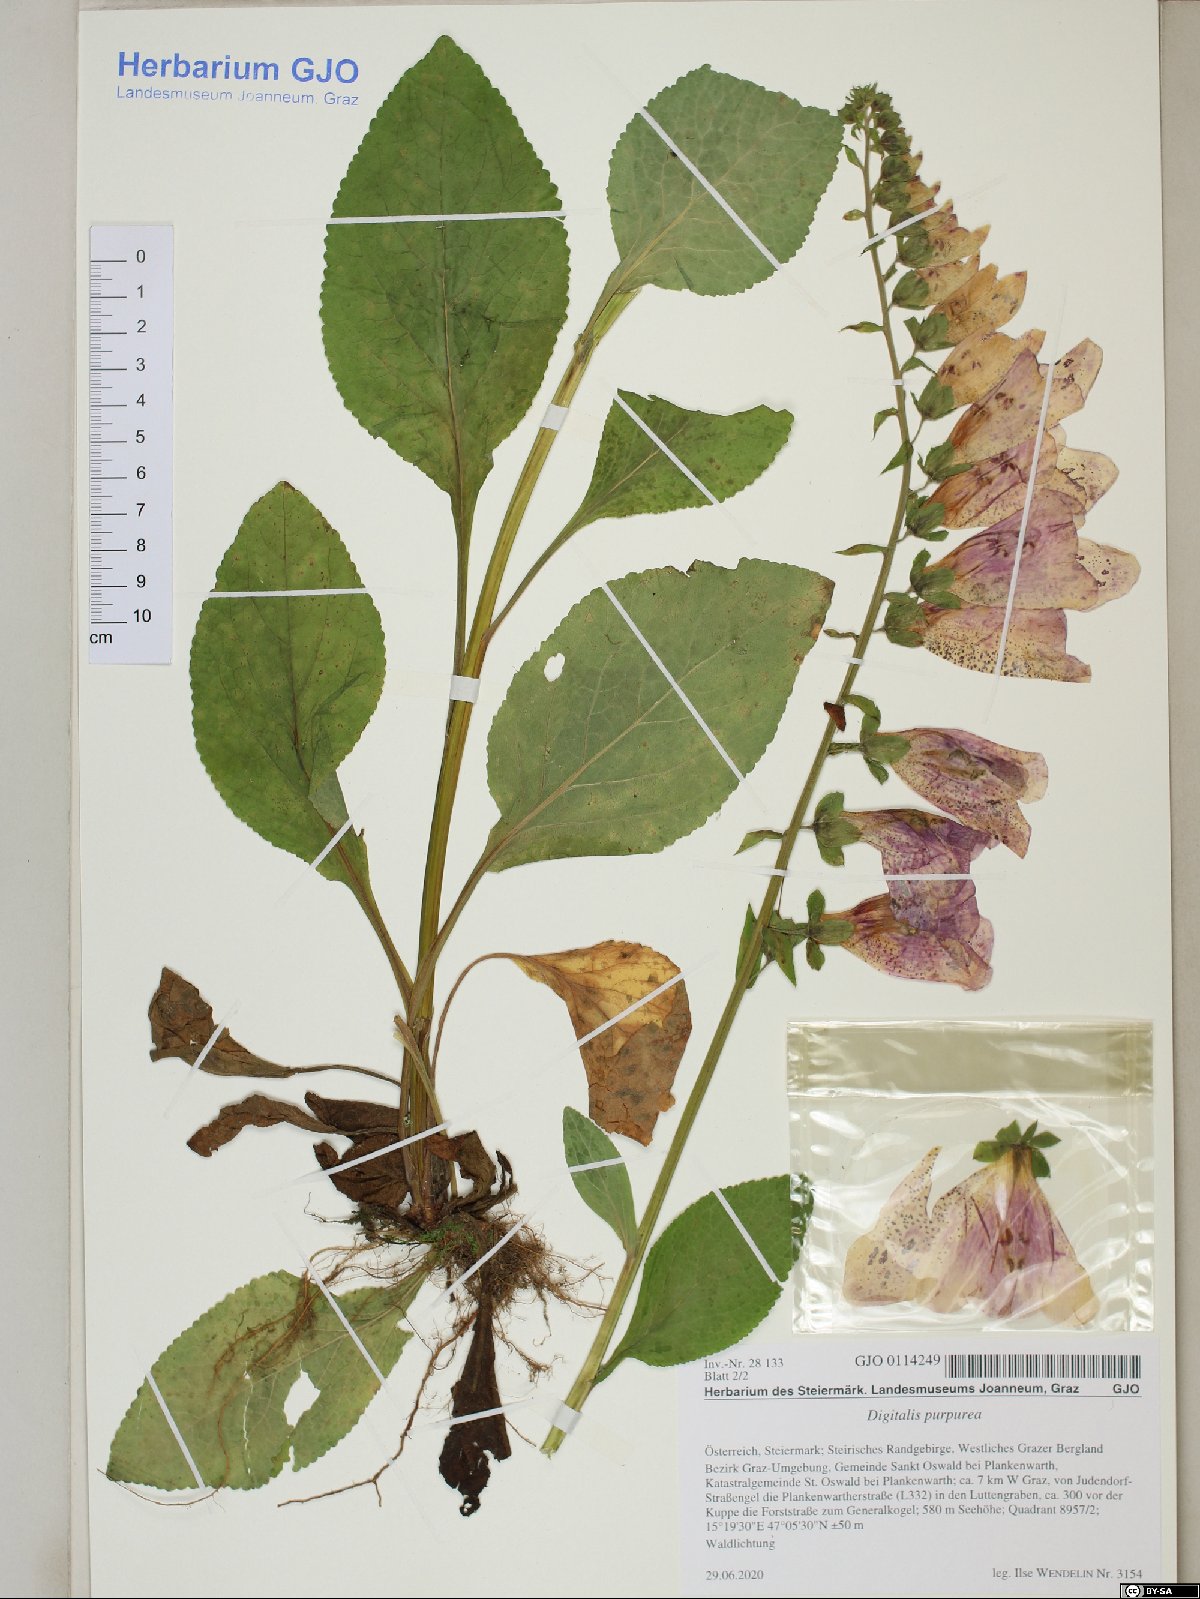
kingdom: Plantae
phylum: Tracheophyta
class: Magnoliopsida
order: Apiales
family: Araliaceae
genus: Hedera
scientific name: Hedera helix
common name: Ivy
